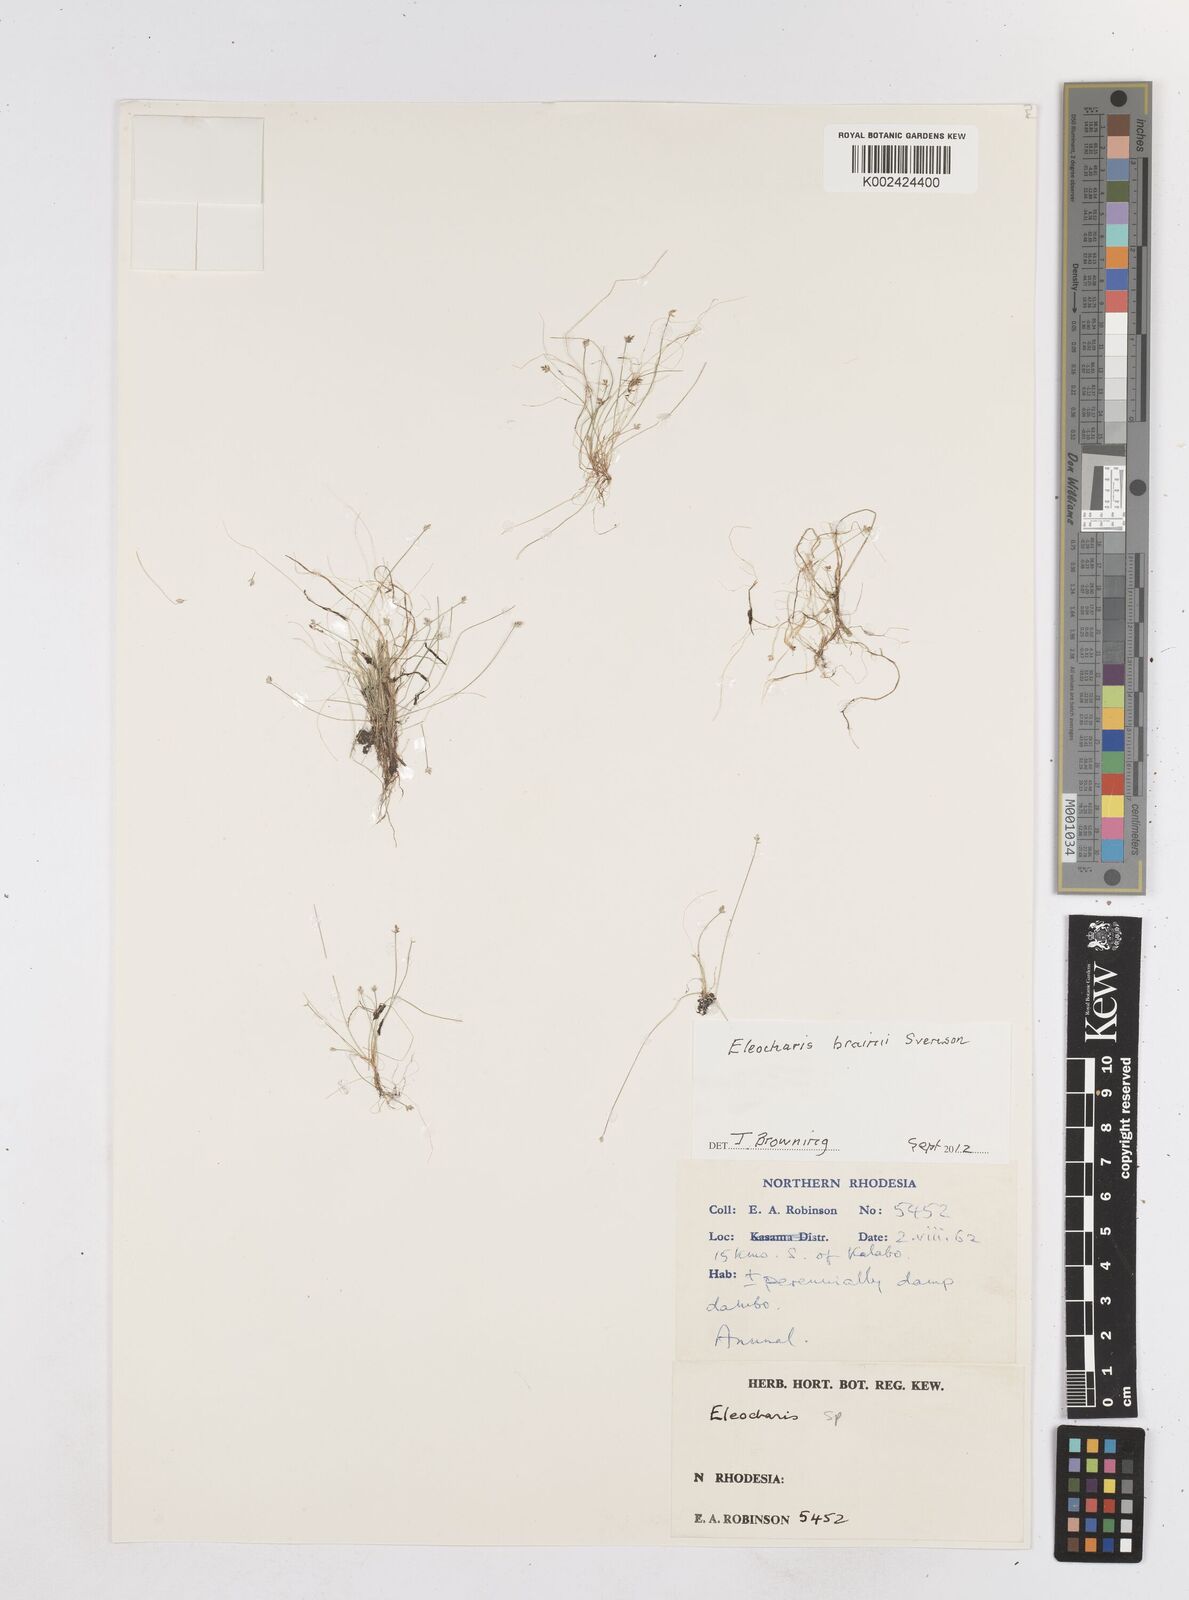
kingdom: Plantae
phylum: Tracheophyta
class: Liliopsida
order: Poales
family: Cyperaceae
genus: Eleocharis
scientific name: Eleocharis brainii
